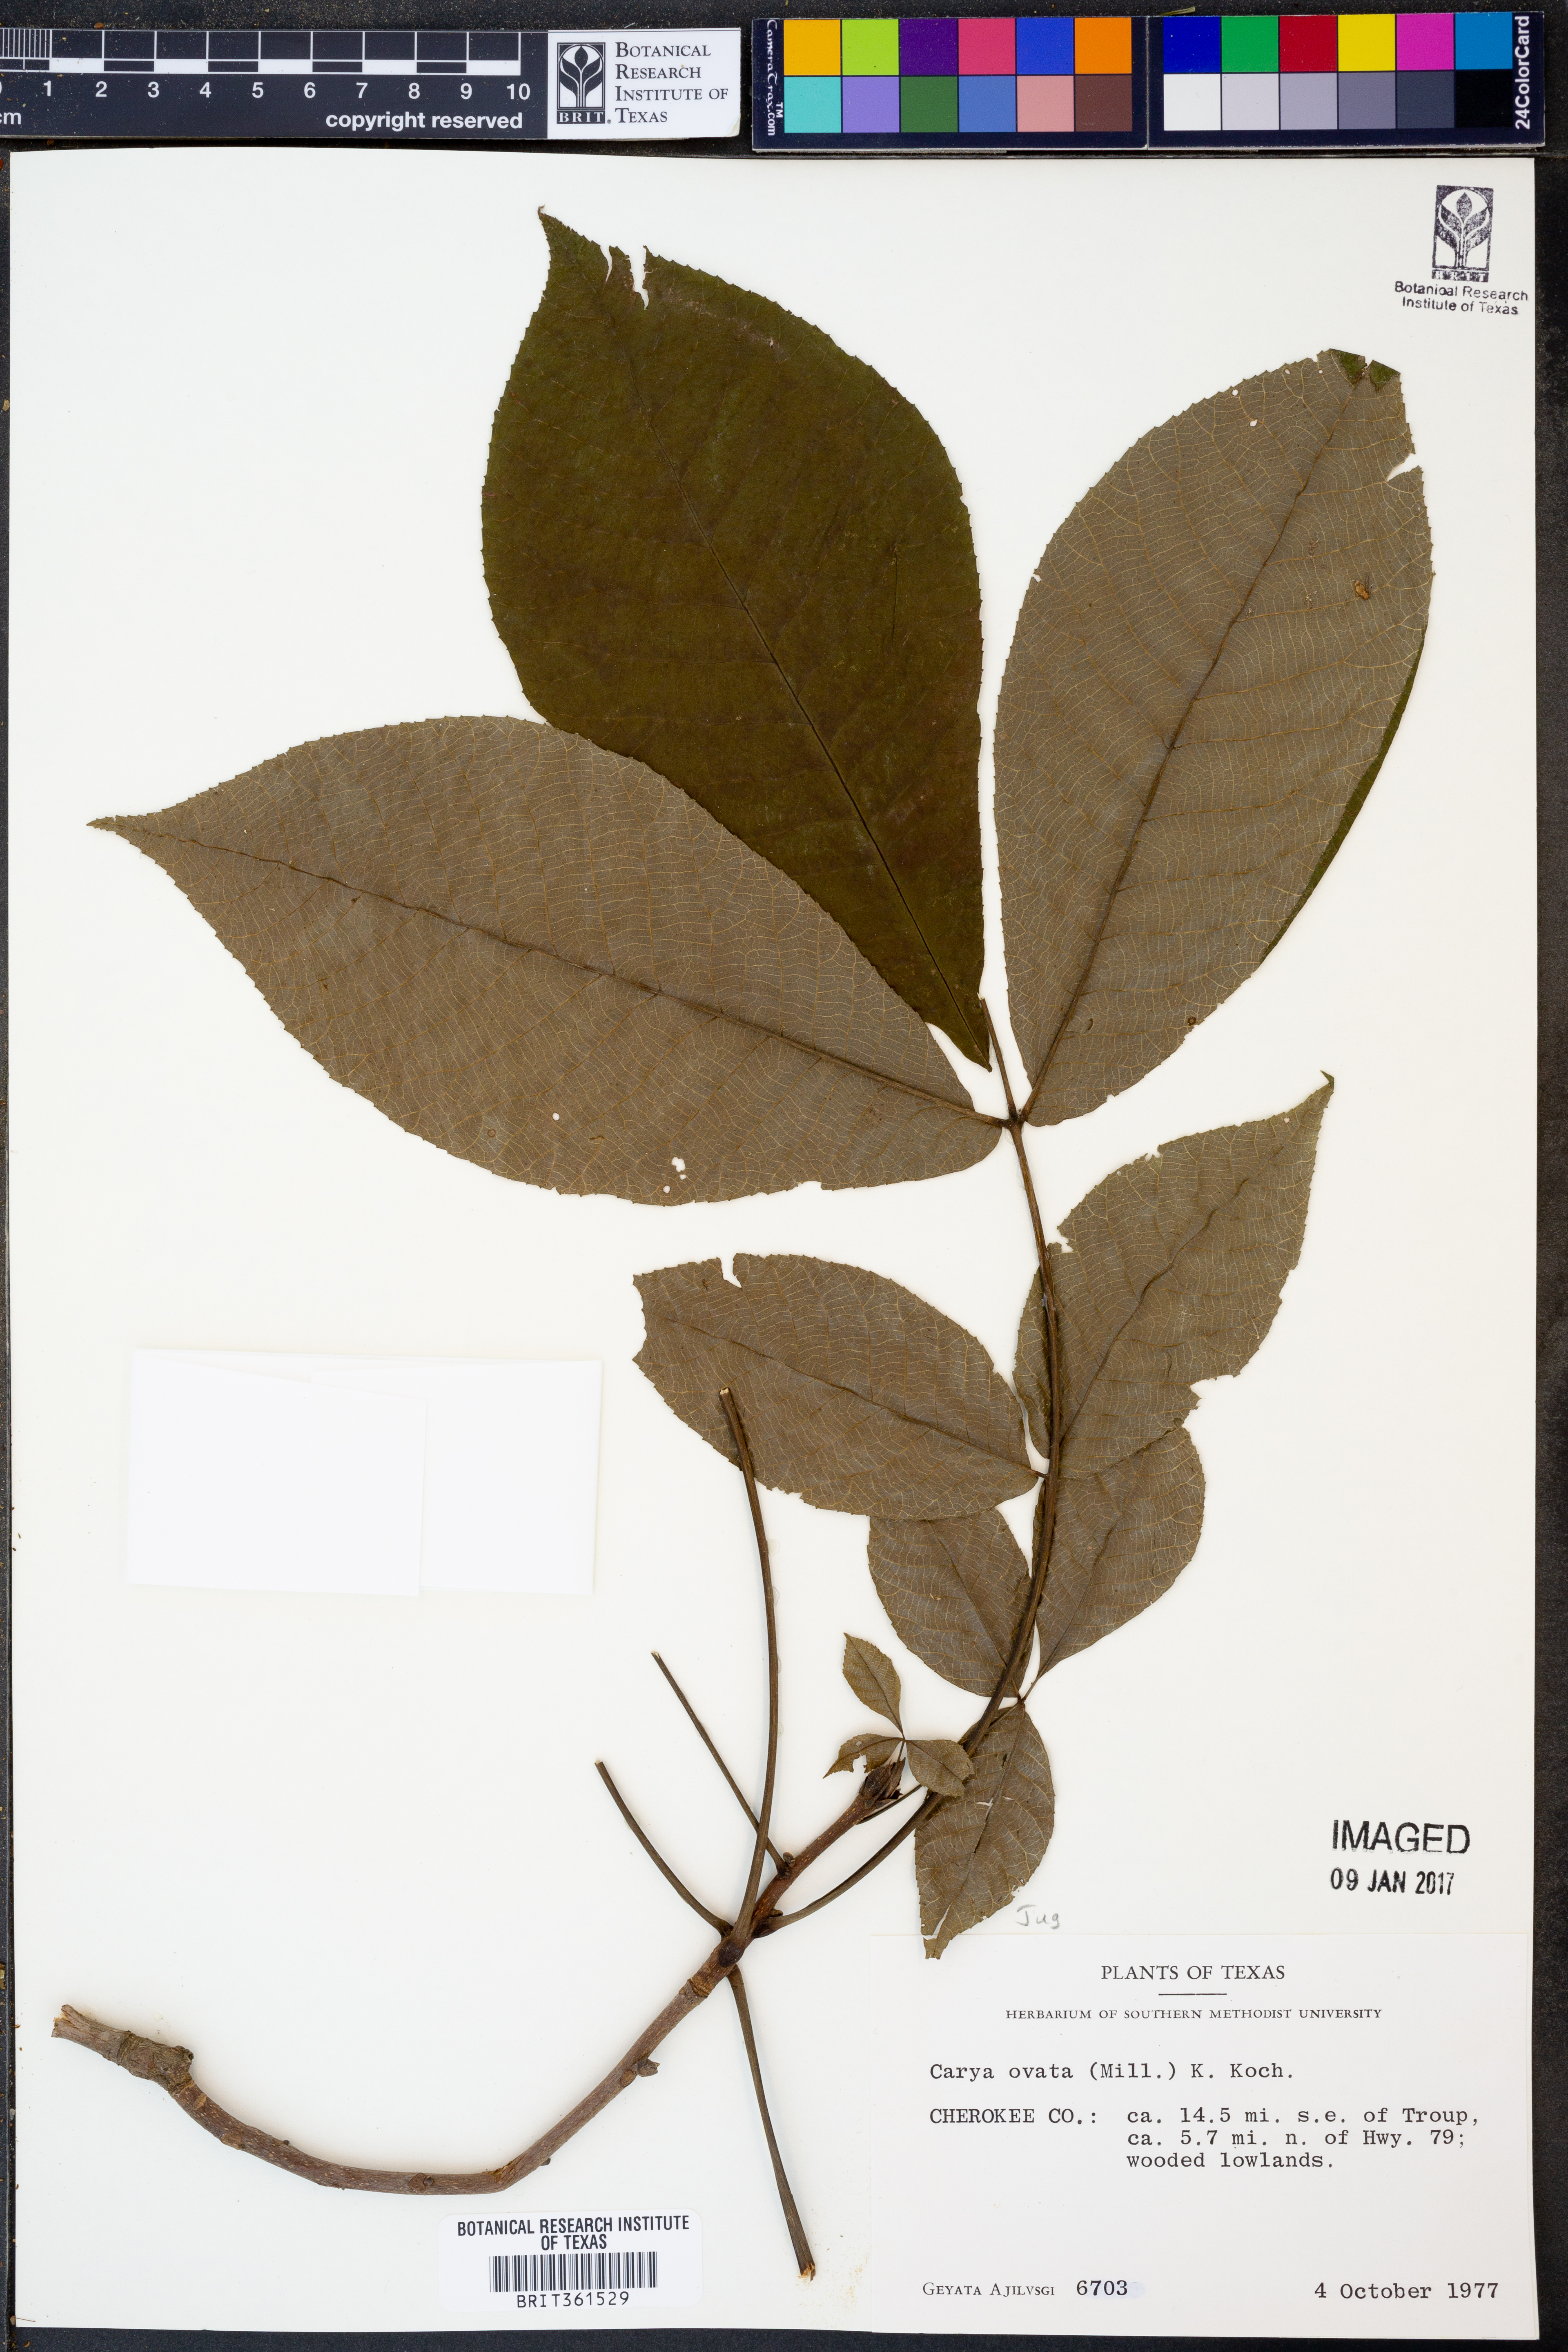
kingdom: Plantae
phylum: Tracheophyta
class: Magnoliopsida
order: Fagales
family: Juglandaceae
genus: Carya
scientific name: Carya ovata
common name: Shagbark hickory
